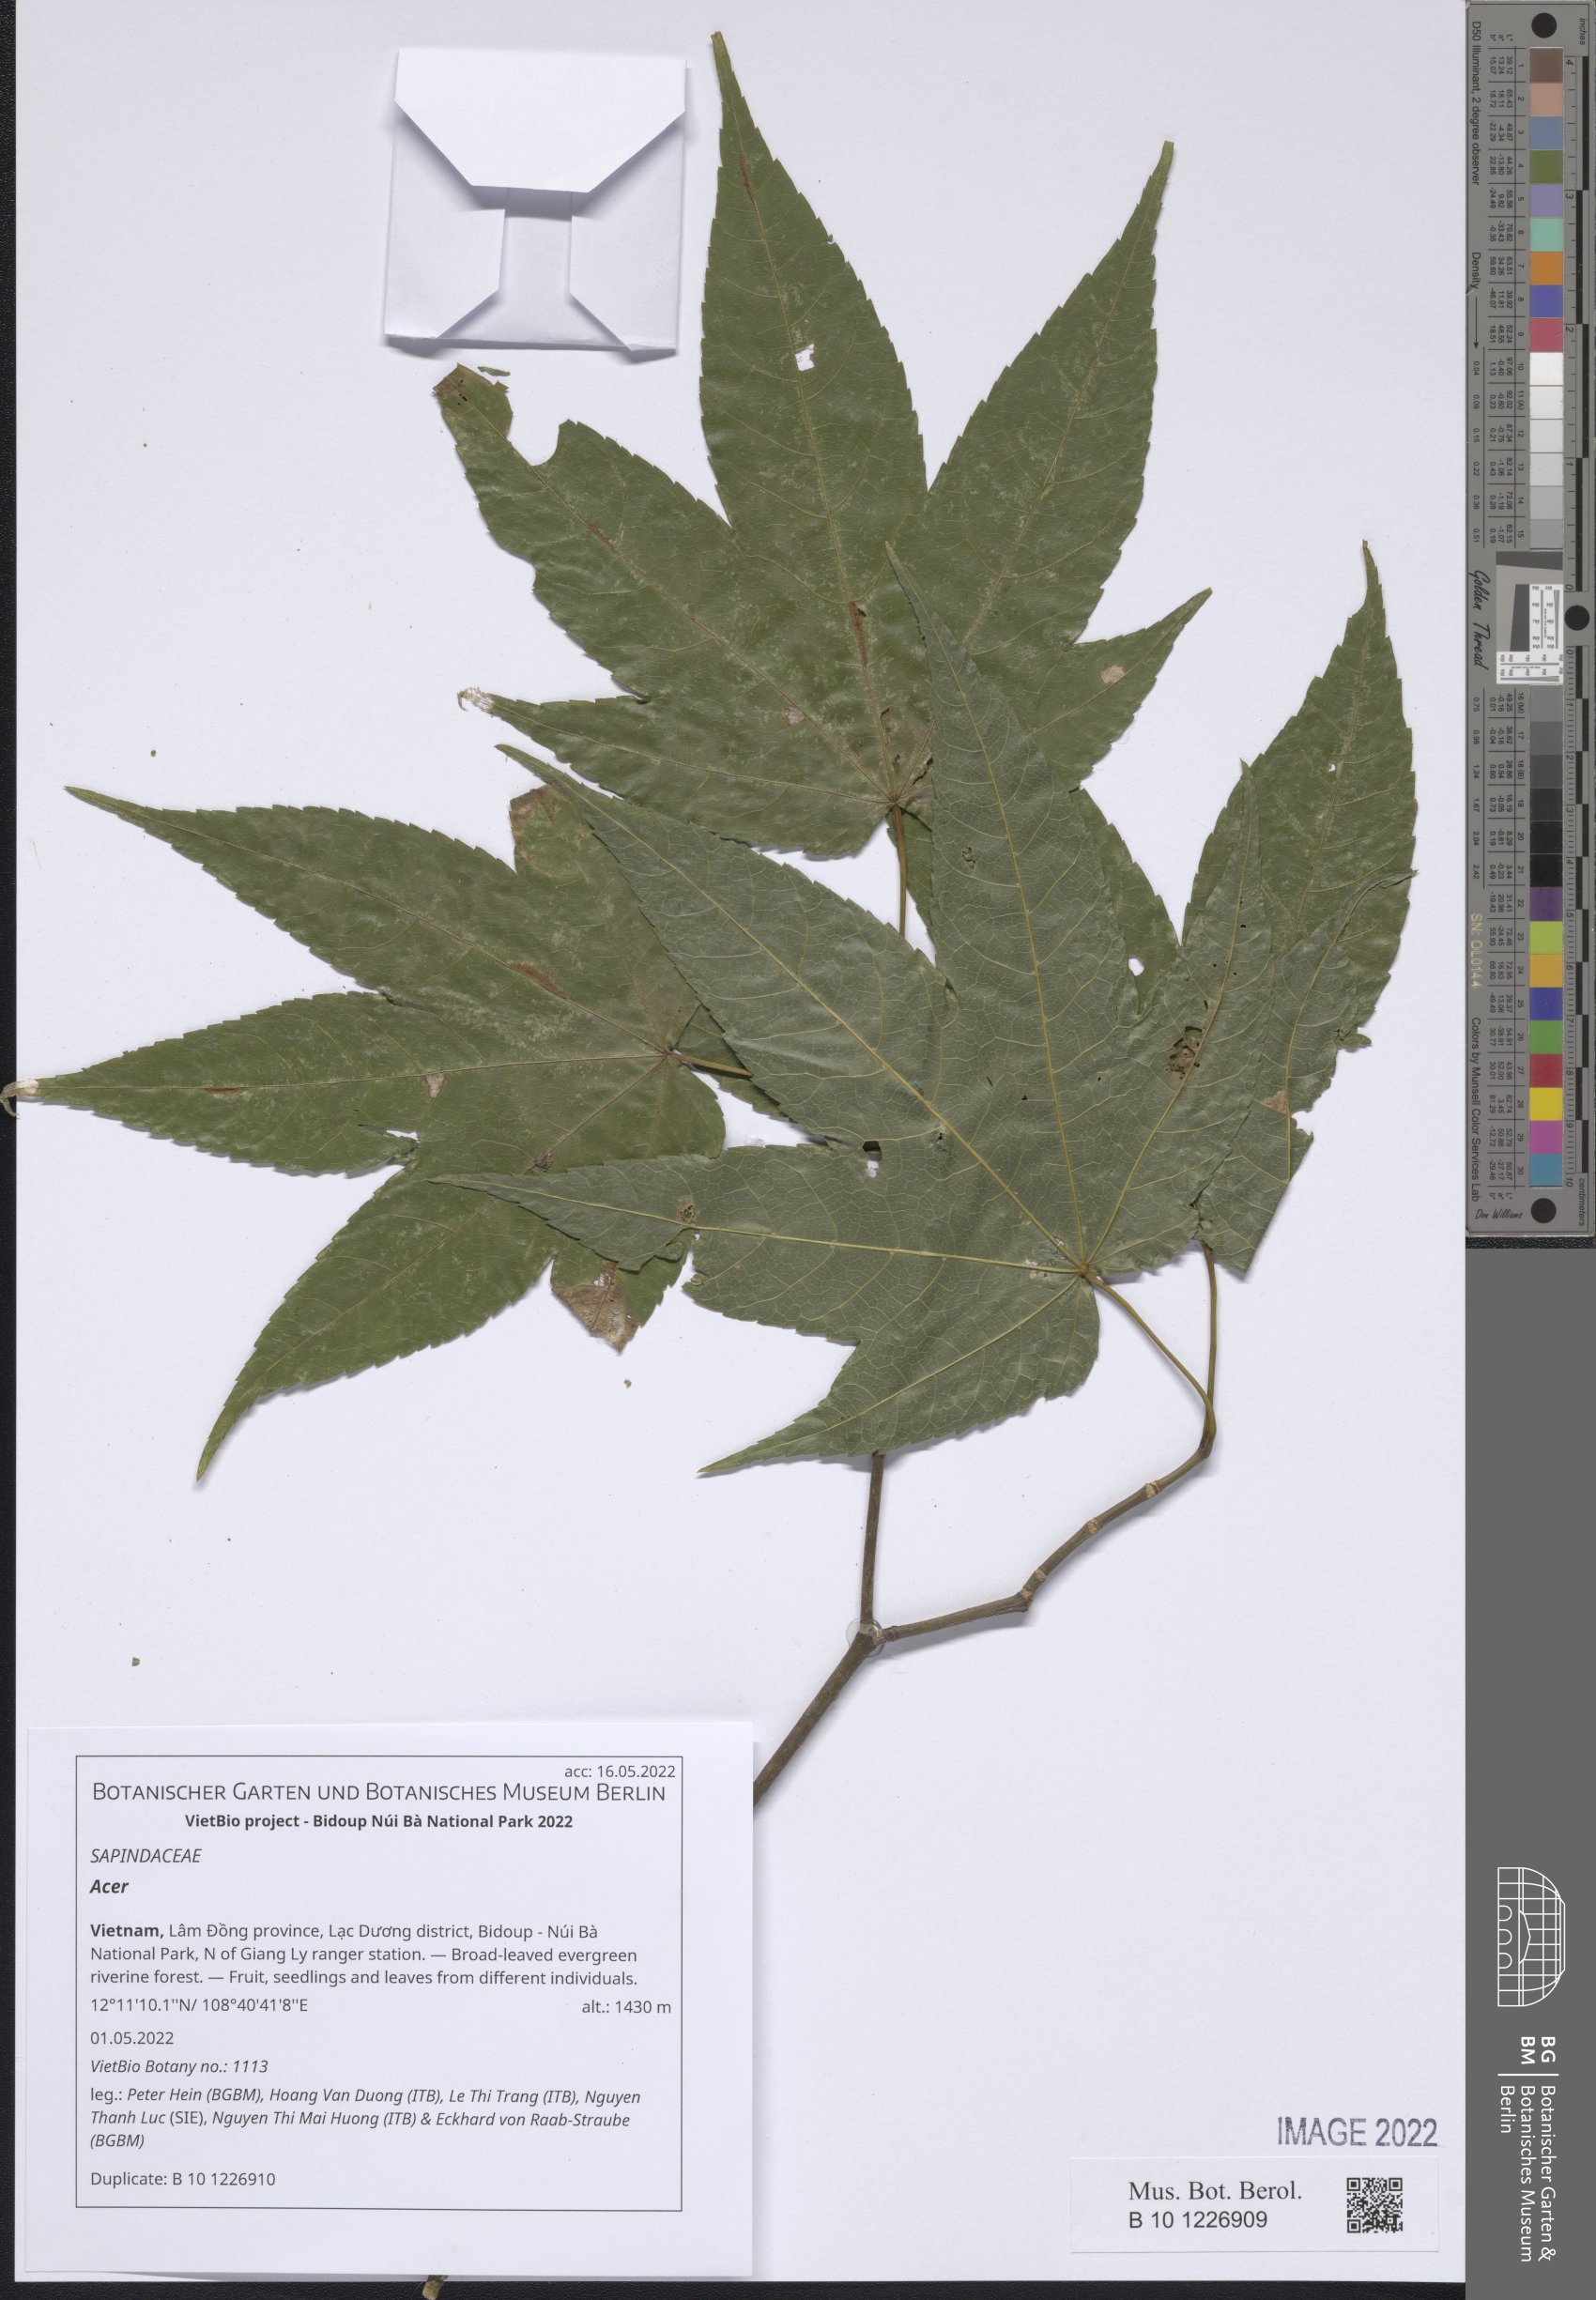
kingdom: Plantae
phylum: Tracheophyta
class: Magnoliopsida
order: Sapindales
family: Sapindaceae
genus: Acer
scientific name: Acer
